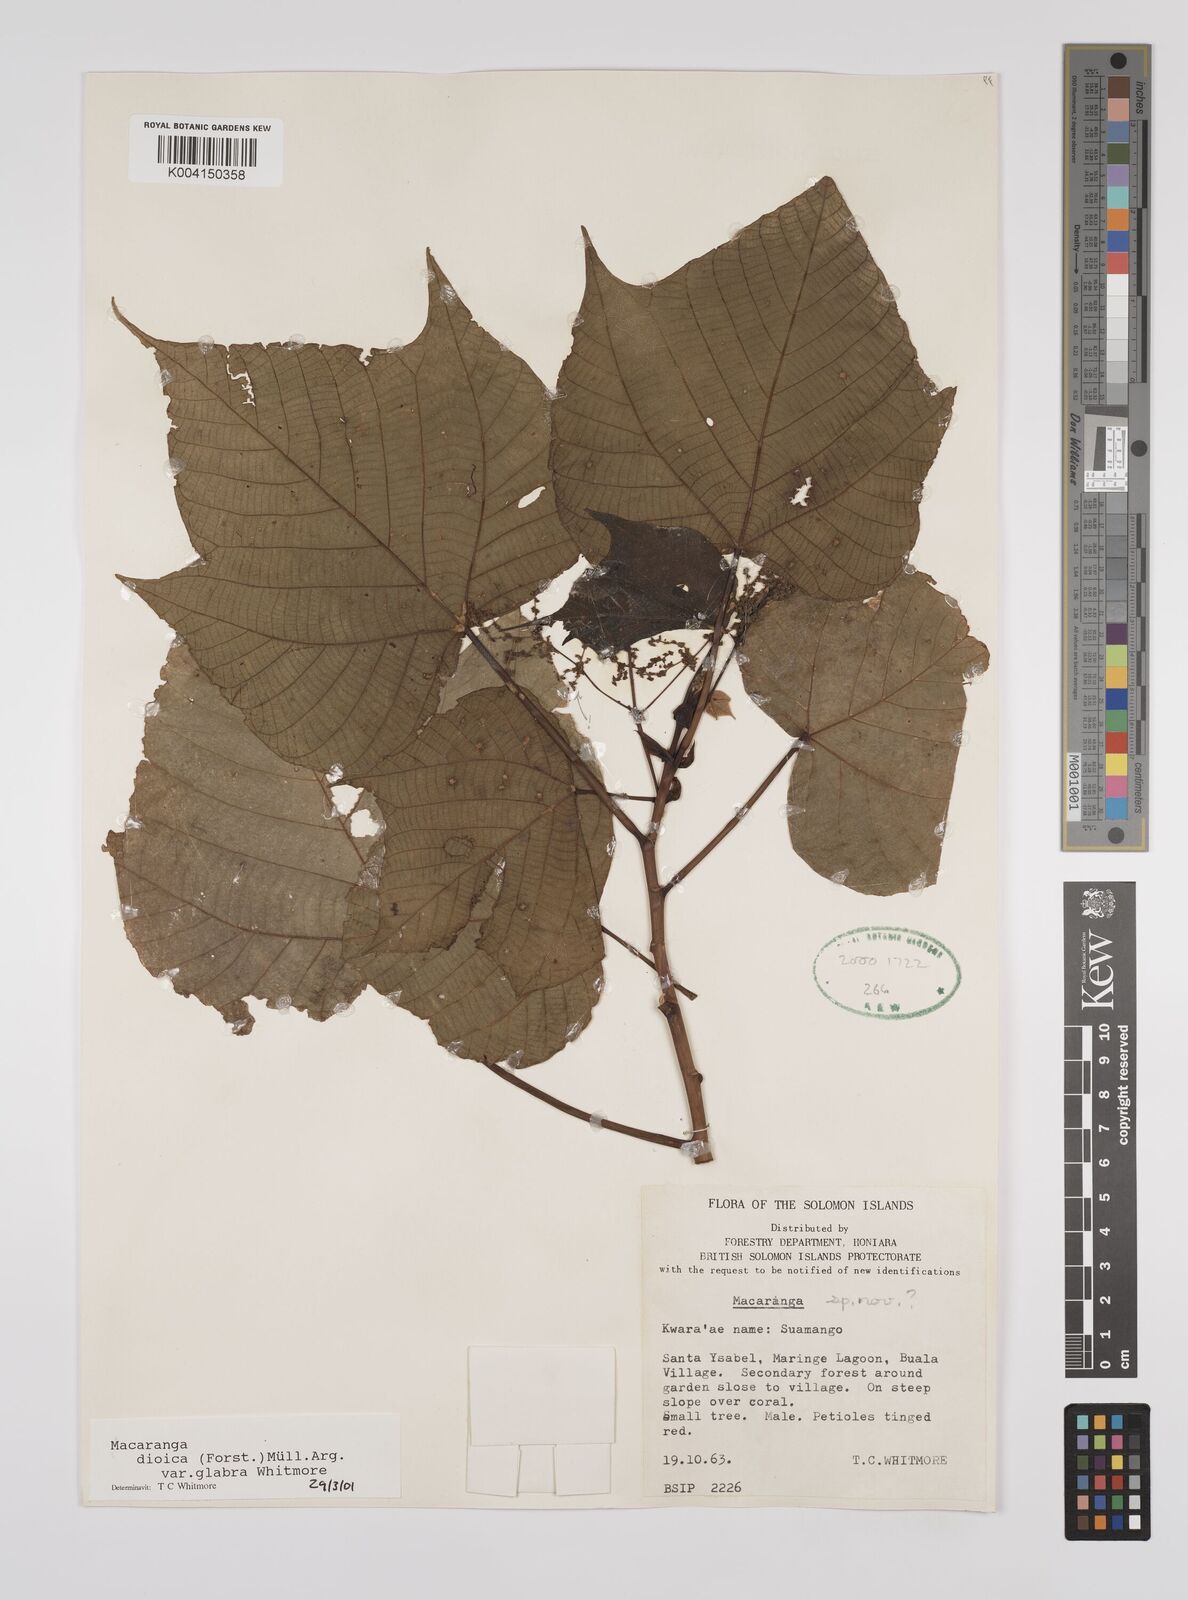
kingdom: Plantae
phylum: Tracheophyta
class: Magnoliopsida
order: Malpighiales
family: Euphorbiaceae
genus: Macaranga
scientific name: Macaranga dioica
